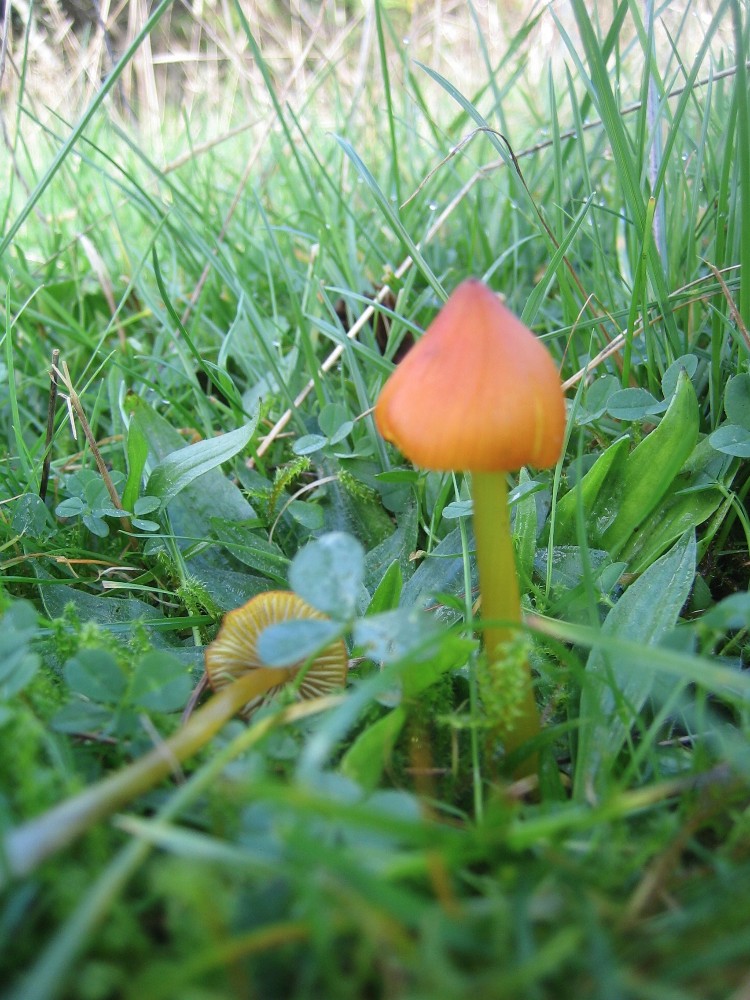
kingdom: Fungi
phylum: Basidiomycota
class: Agaricomycetes
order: Agaricales
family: Hygrophoraceae
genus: Hygrocybe
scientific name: Hygrocybe conica
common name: kegle-vokshat
